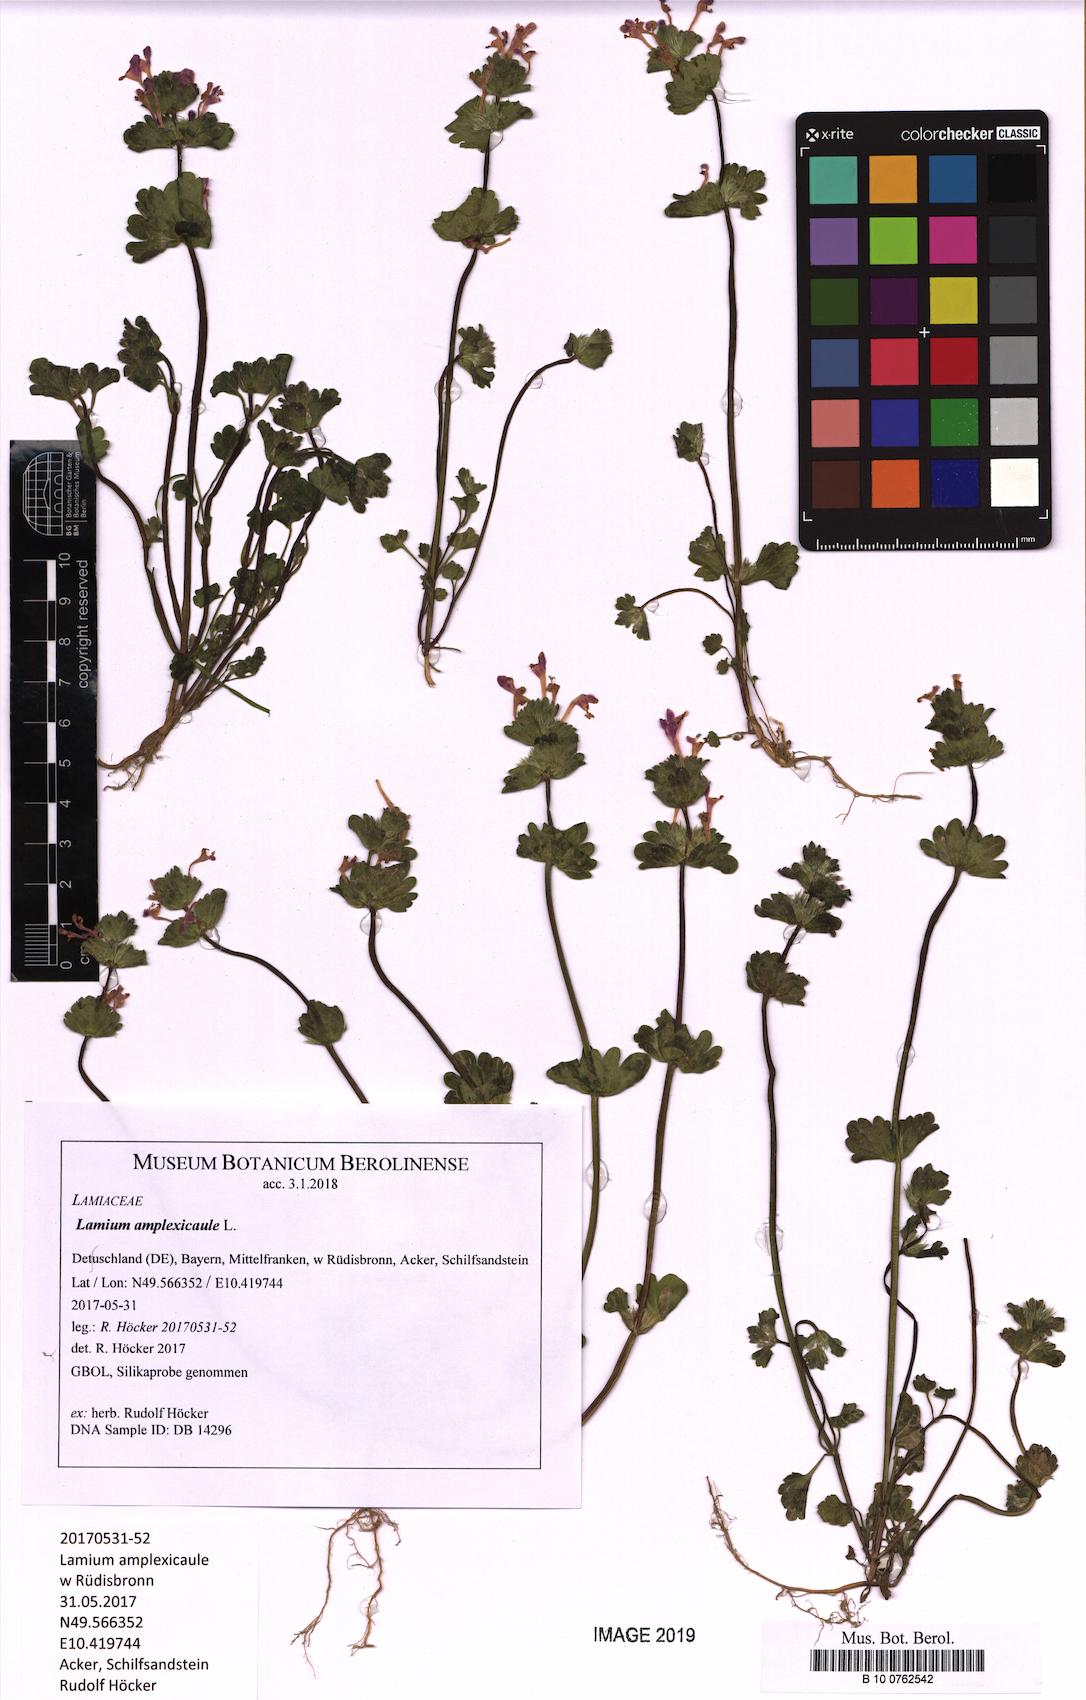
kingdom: Plantae
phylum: Tracheophyta
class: Magnoliopsida
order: Lamiales
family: Lamiaceae
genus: Lamium
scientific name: Lamium amplexicaule
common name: Henbit dead-nettle
